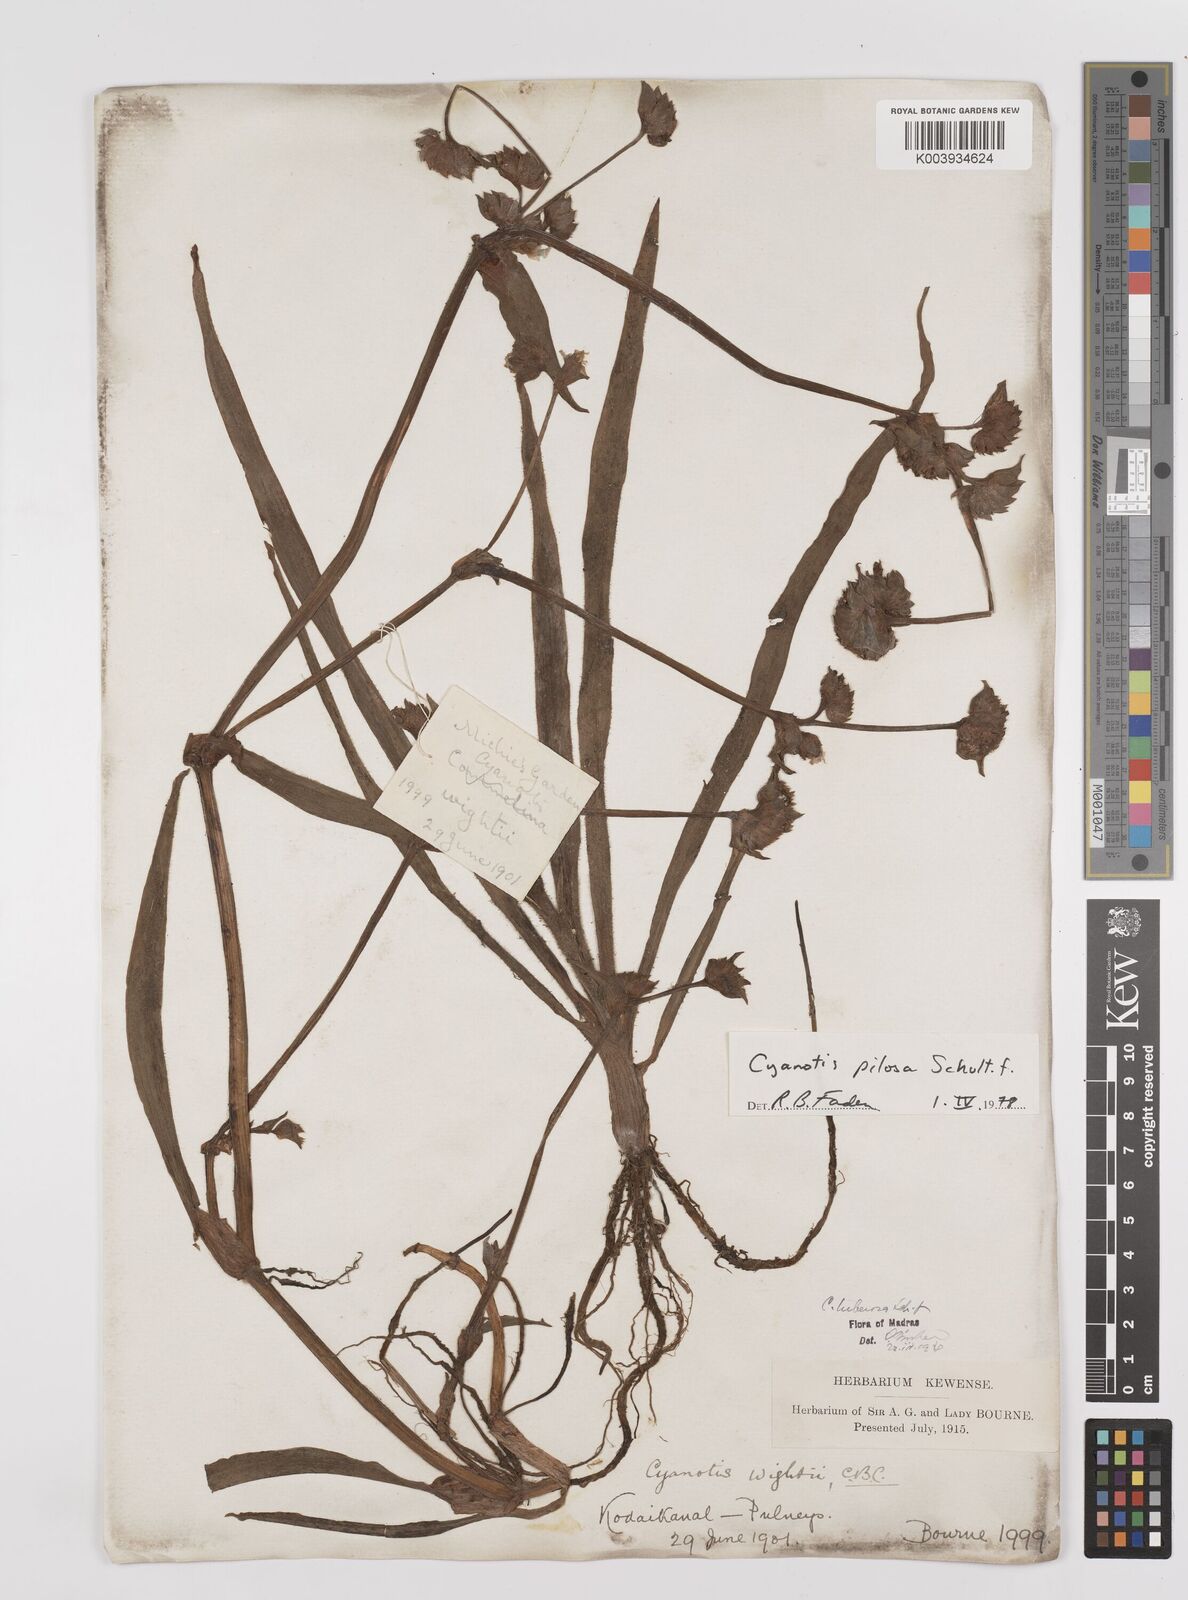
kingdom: Plantae
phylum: Tracheophyta
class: Liliopsida
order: Commelinales
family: Commelinaceae
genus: Cyanotis
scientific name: Cyanotis pilosa
